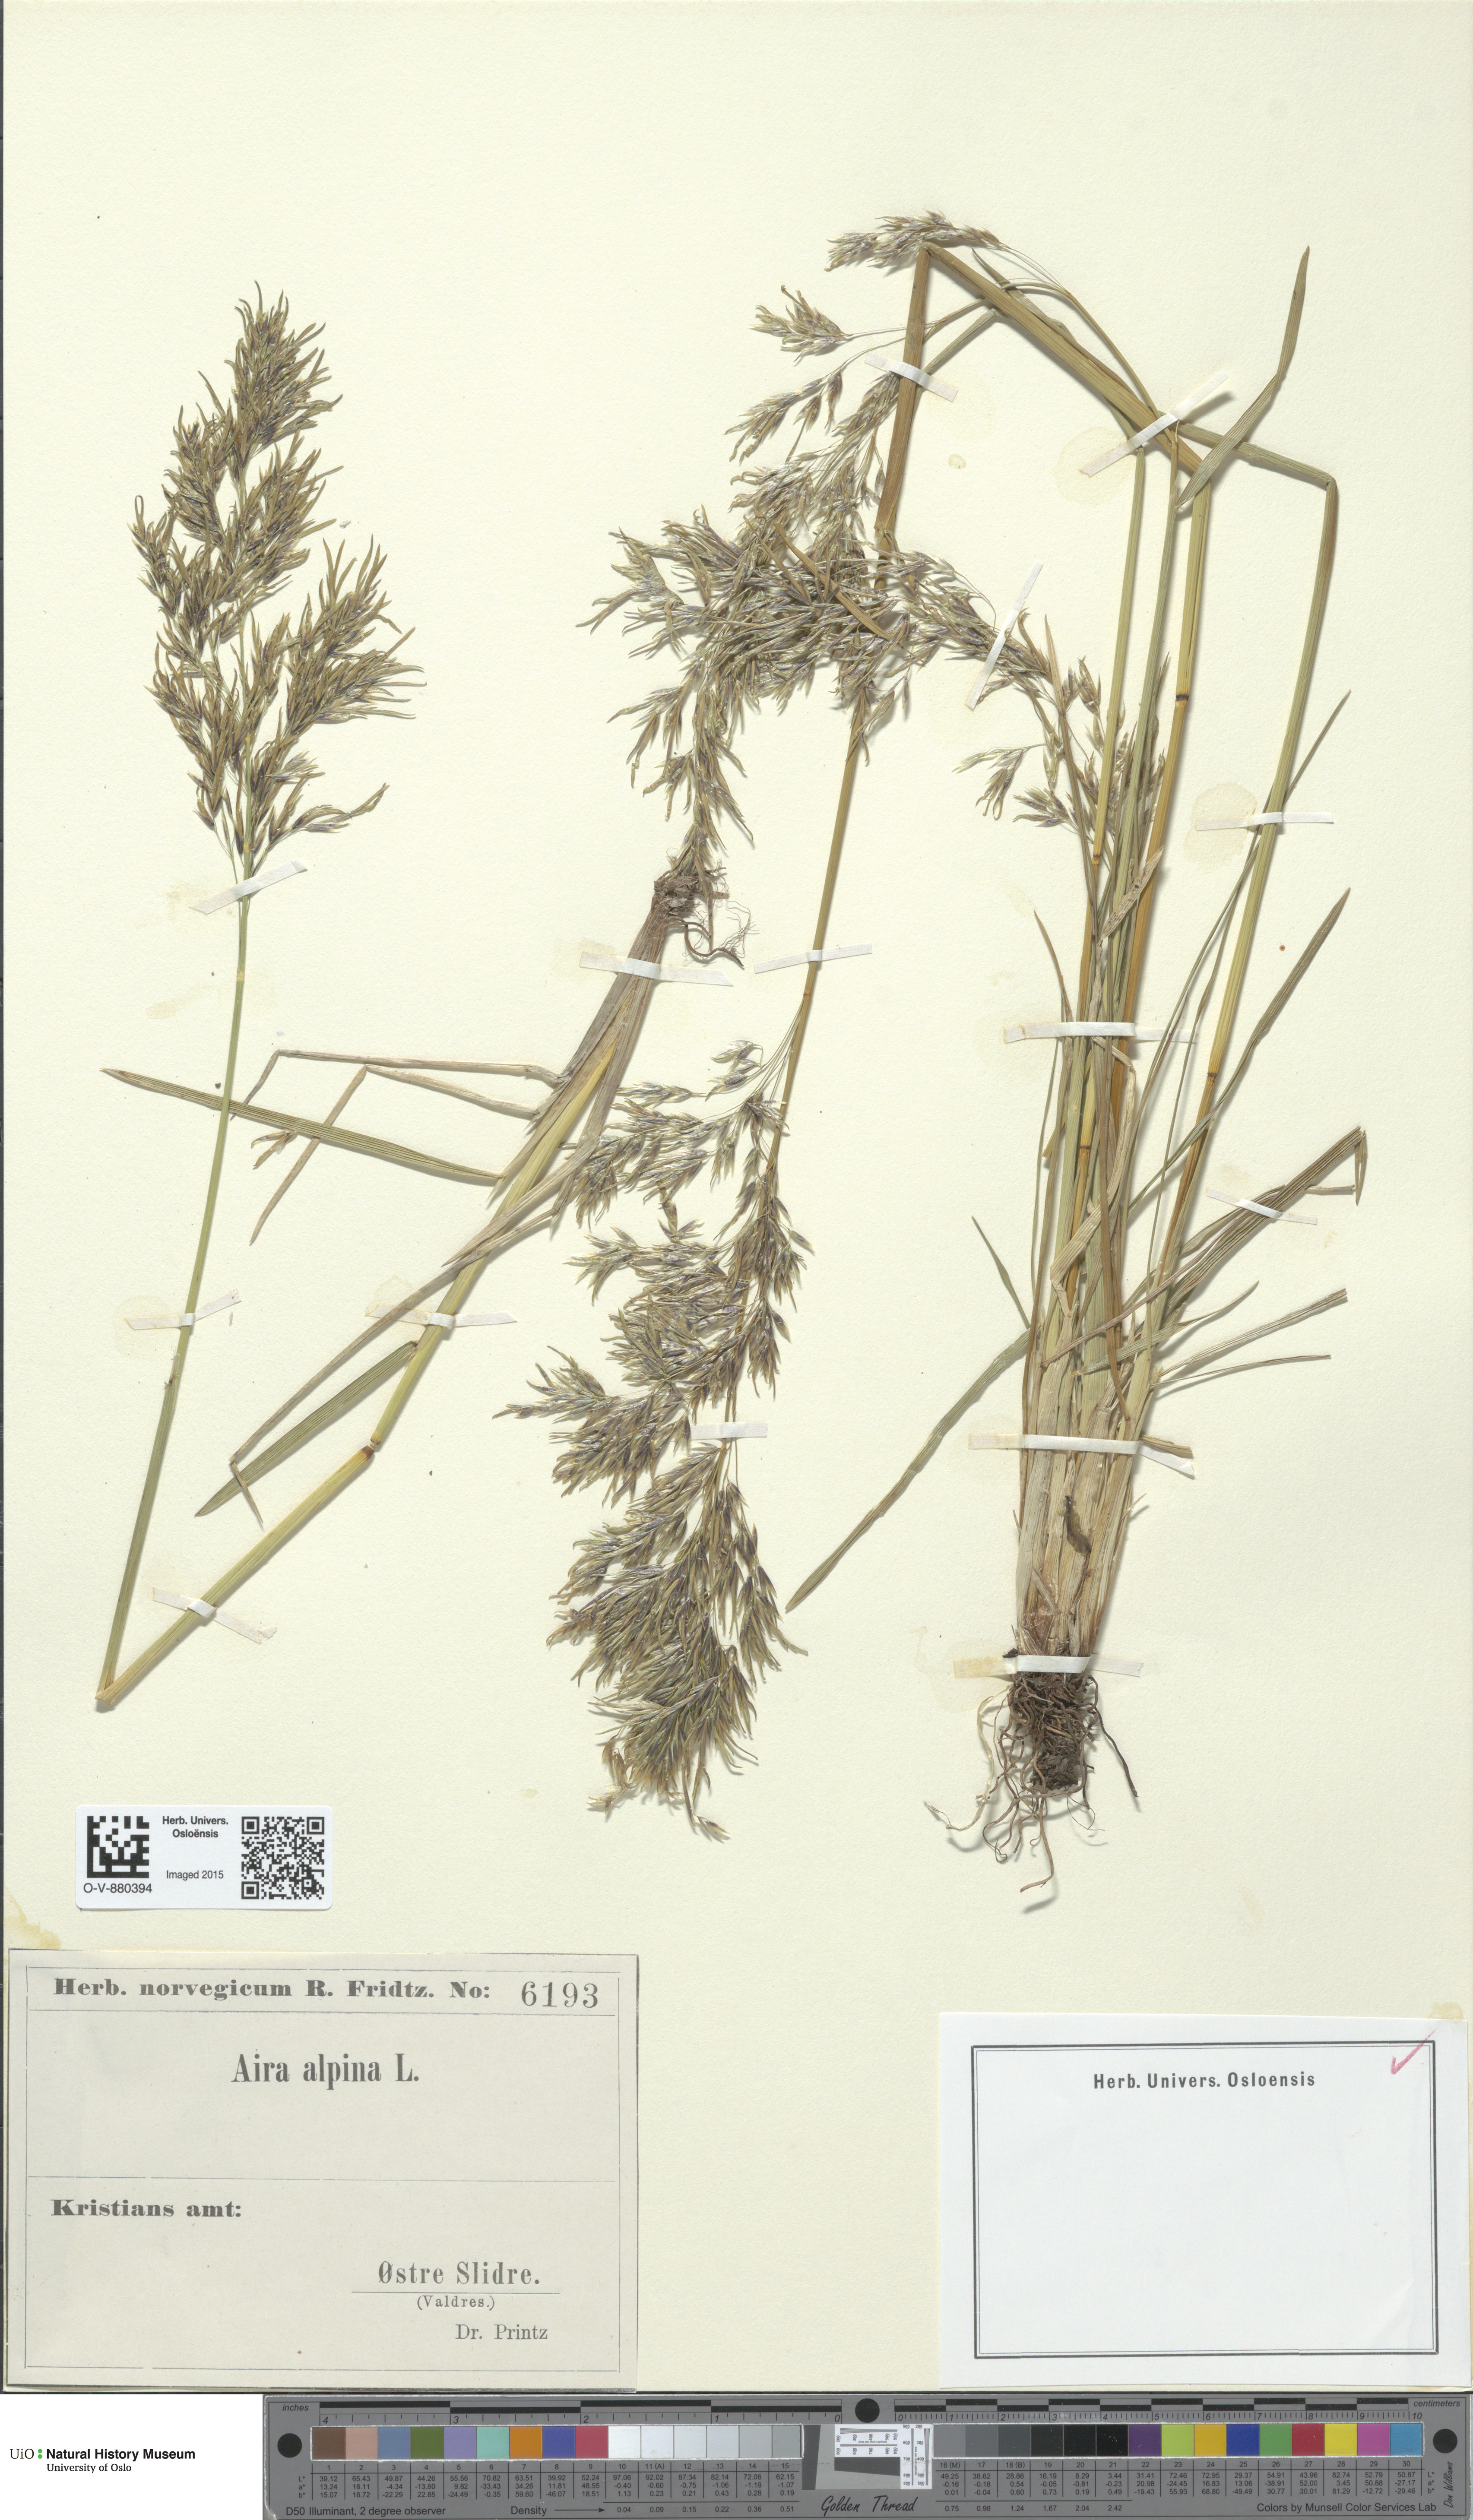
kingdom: Plantae
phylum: Tracheophyta
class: Liliopsida
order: Poales
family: Poaceae
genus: Deschampsia
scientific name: Deschampsia cespitosa
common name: Tufted hair-grass
